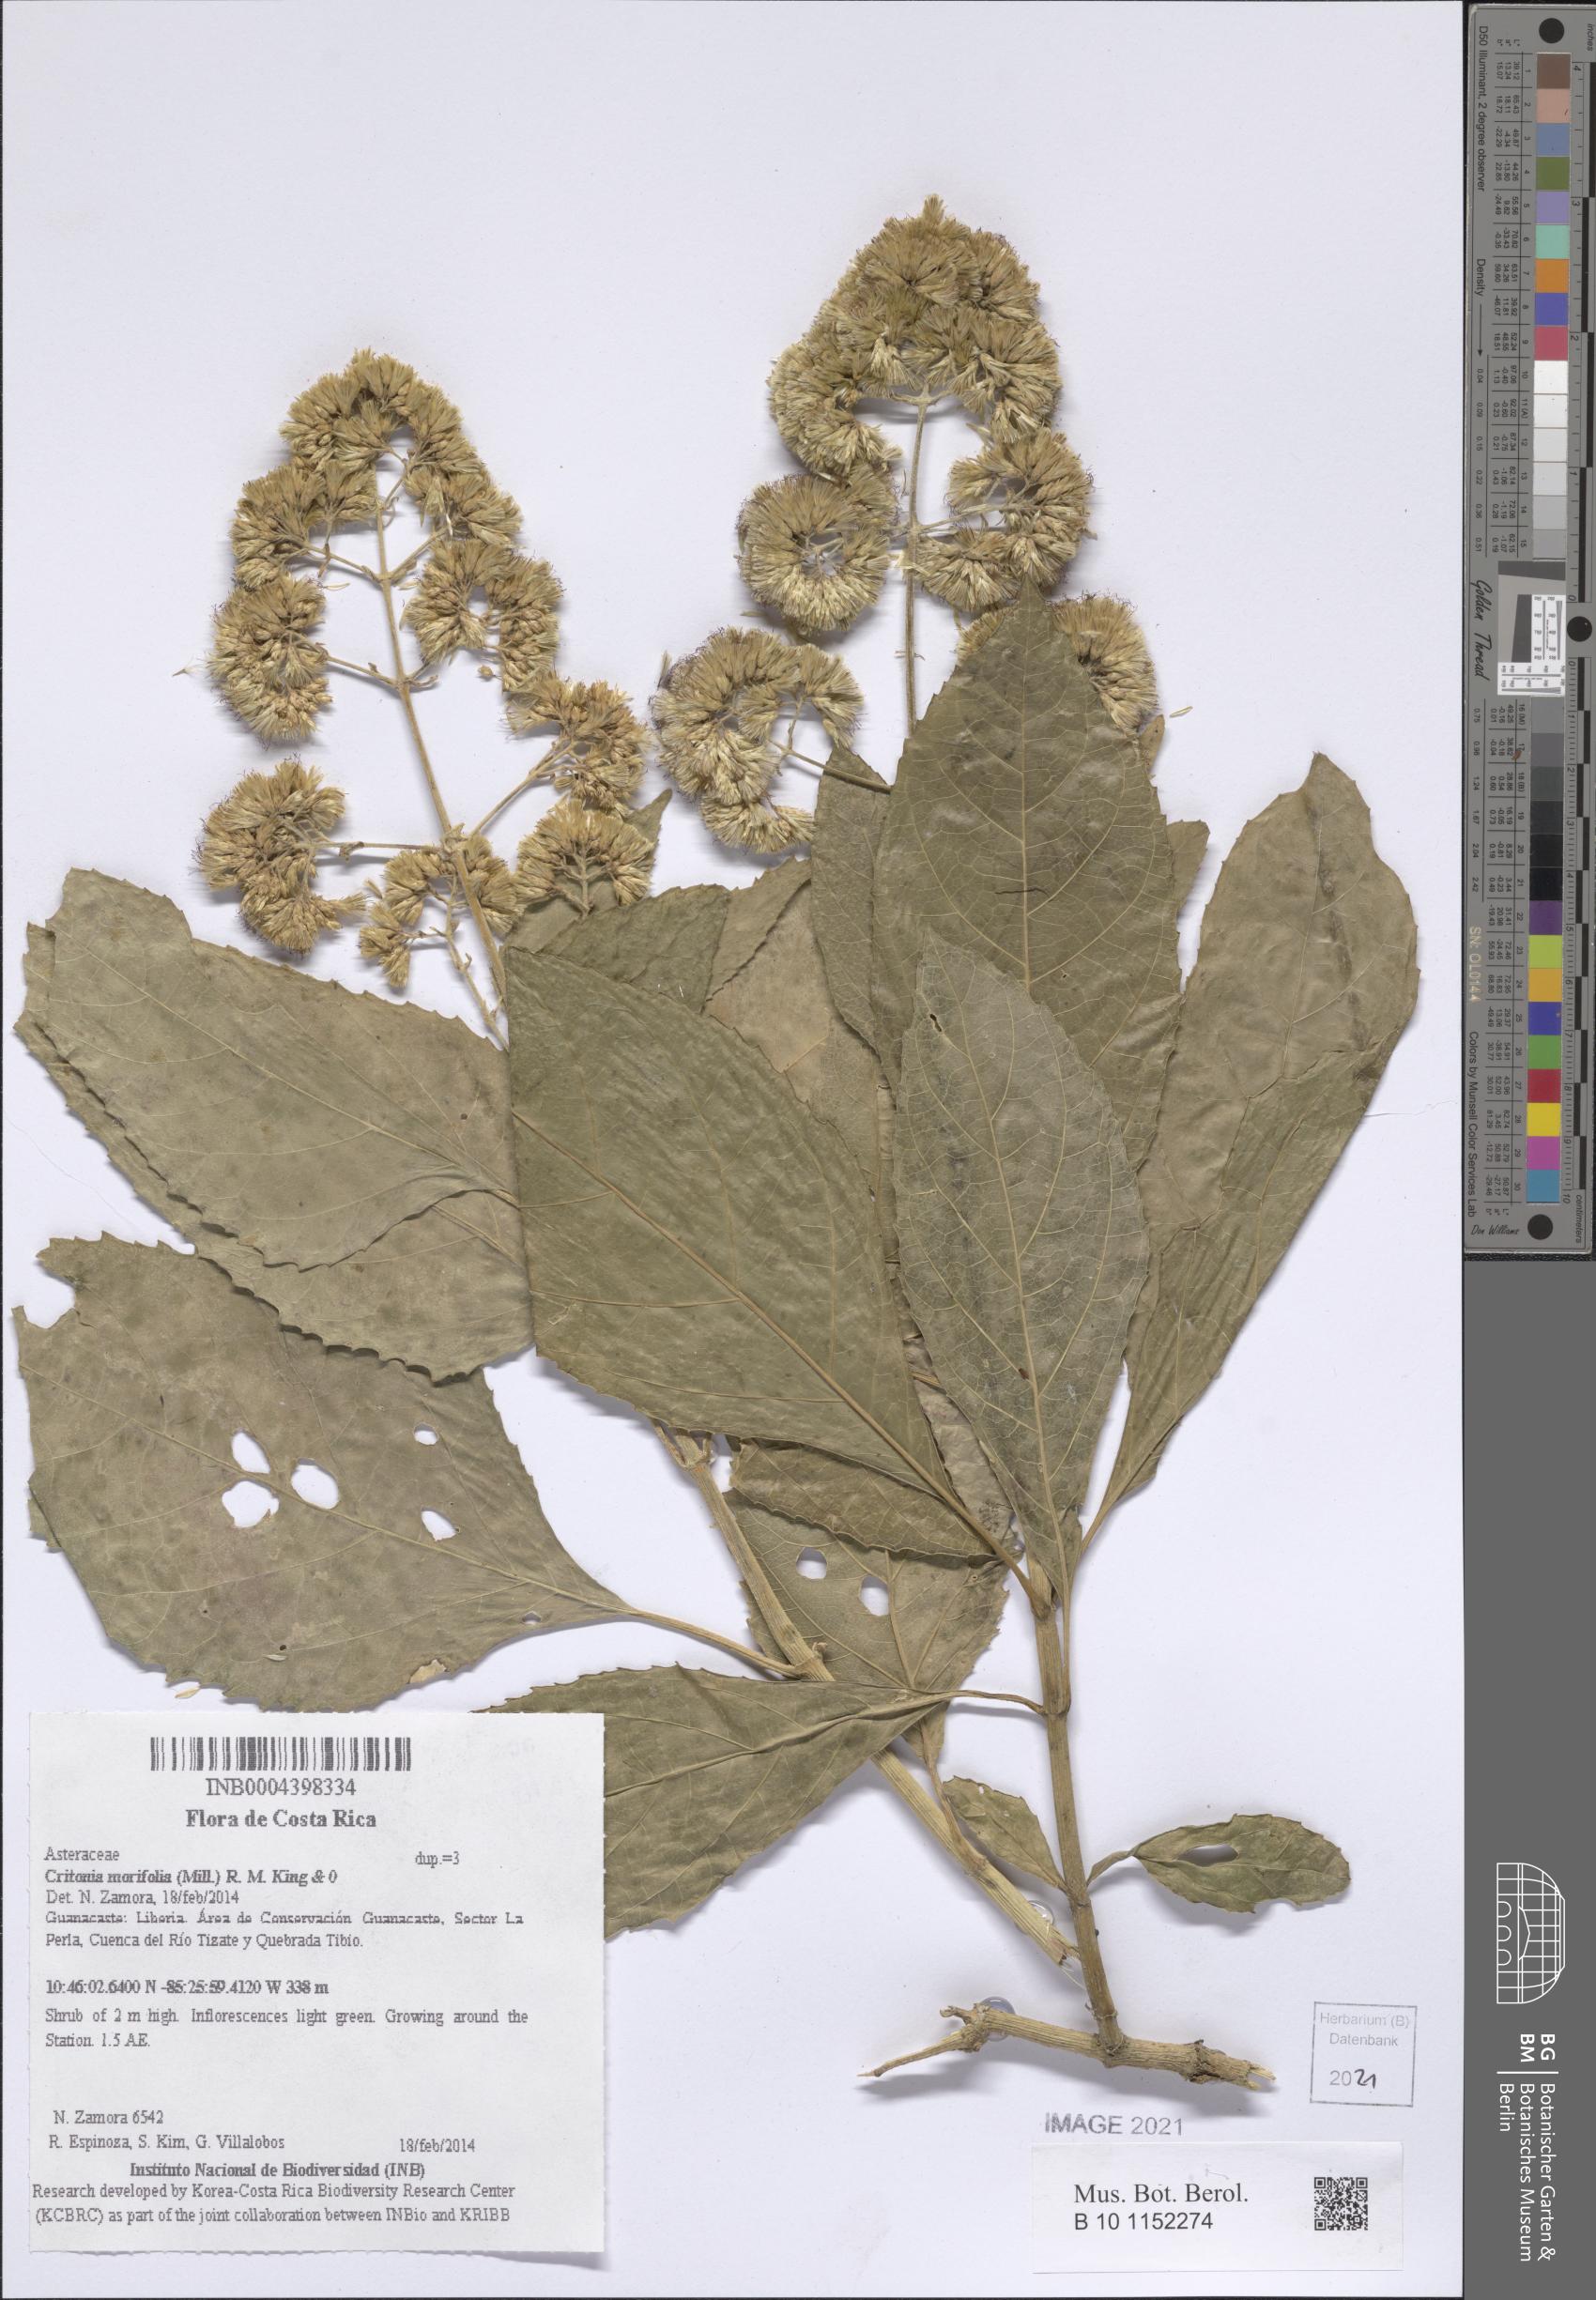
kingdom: Plantae
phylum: Tracheophyta
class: Magnoliopsida
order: Asterales
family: Asteraceae
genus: Critonia
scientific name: Critonia morifolia
